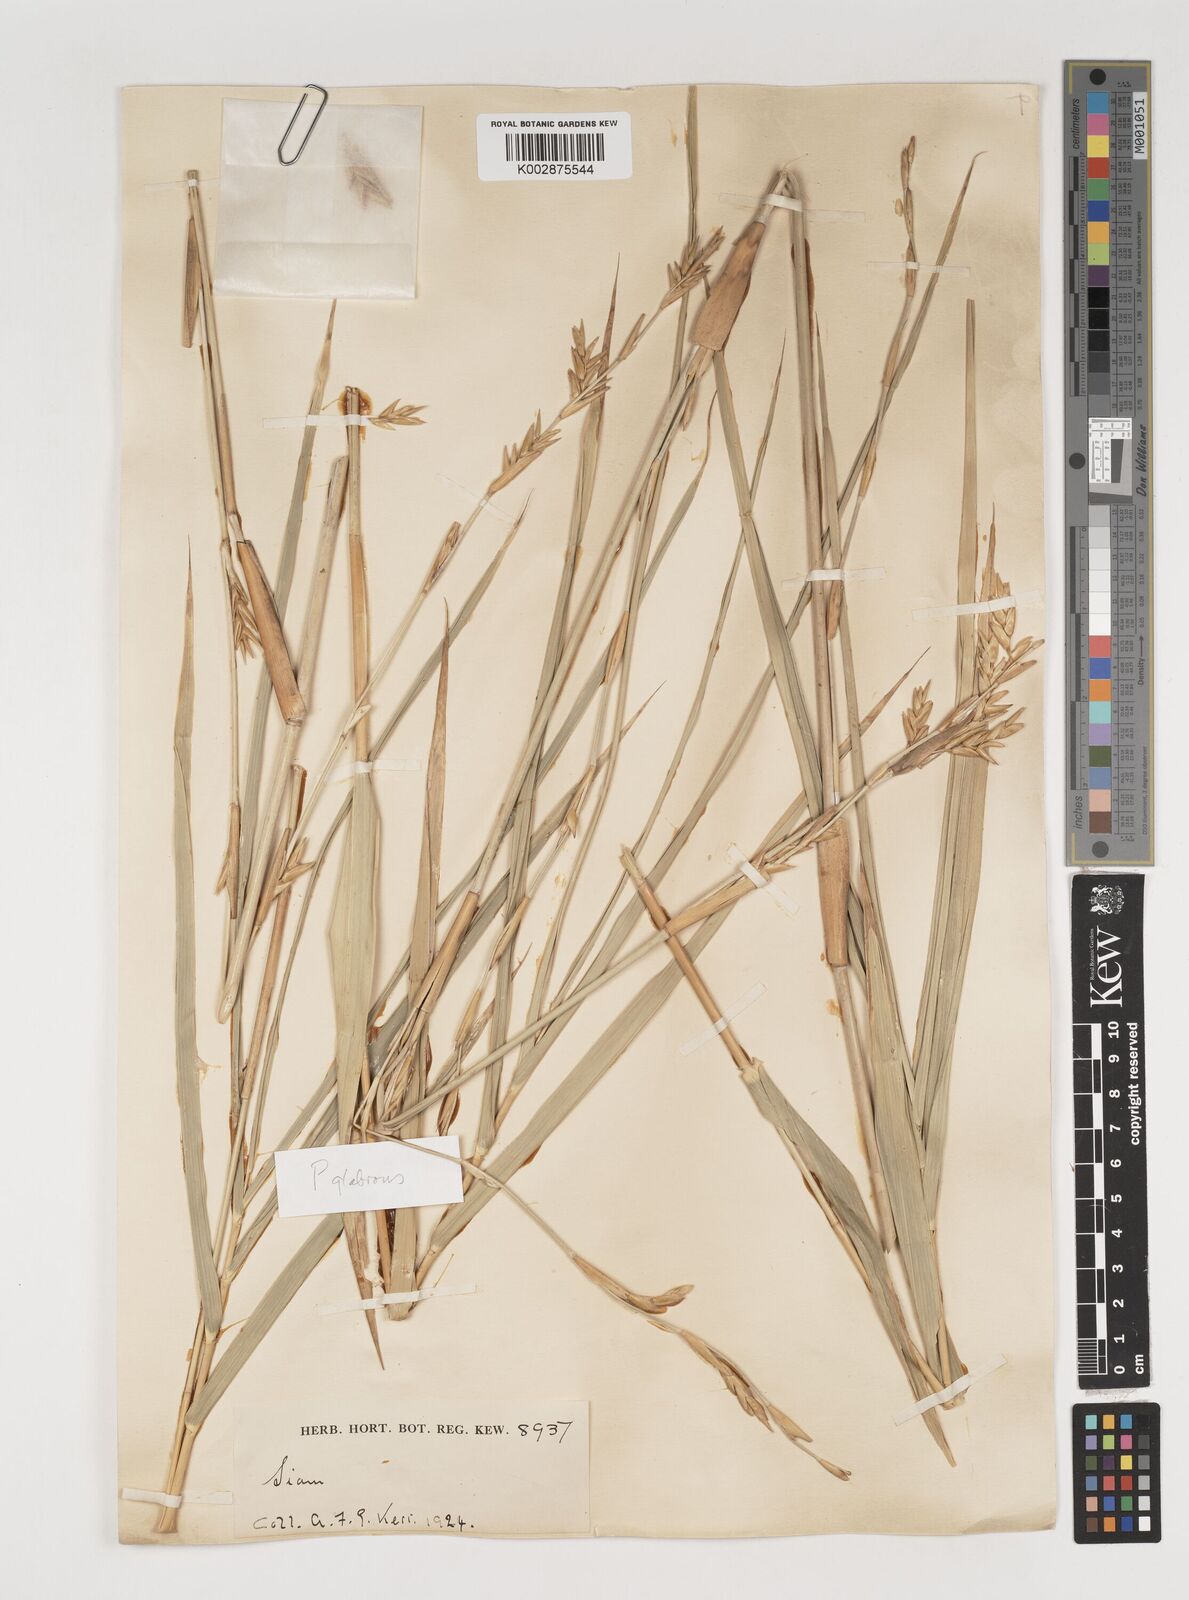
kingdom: Plantae
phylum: Tracheophyta
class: Liliopsida
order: Poales
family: Poaceae
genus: Vietnamosasa
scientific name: Vietnamosasa pusilla
